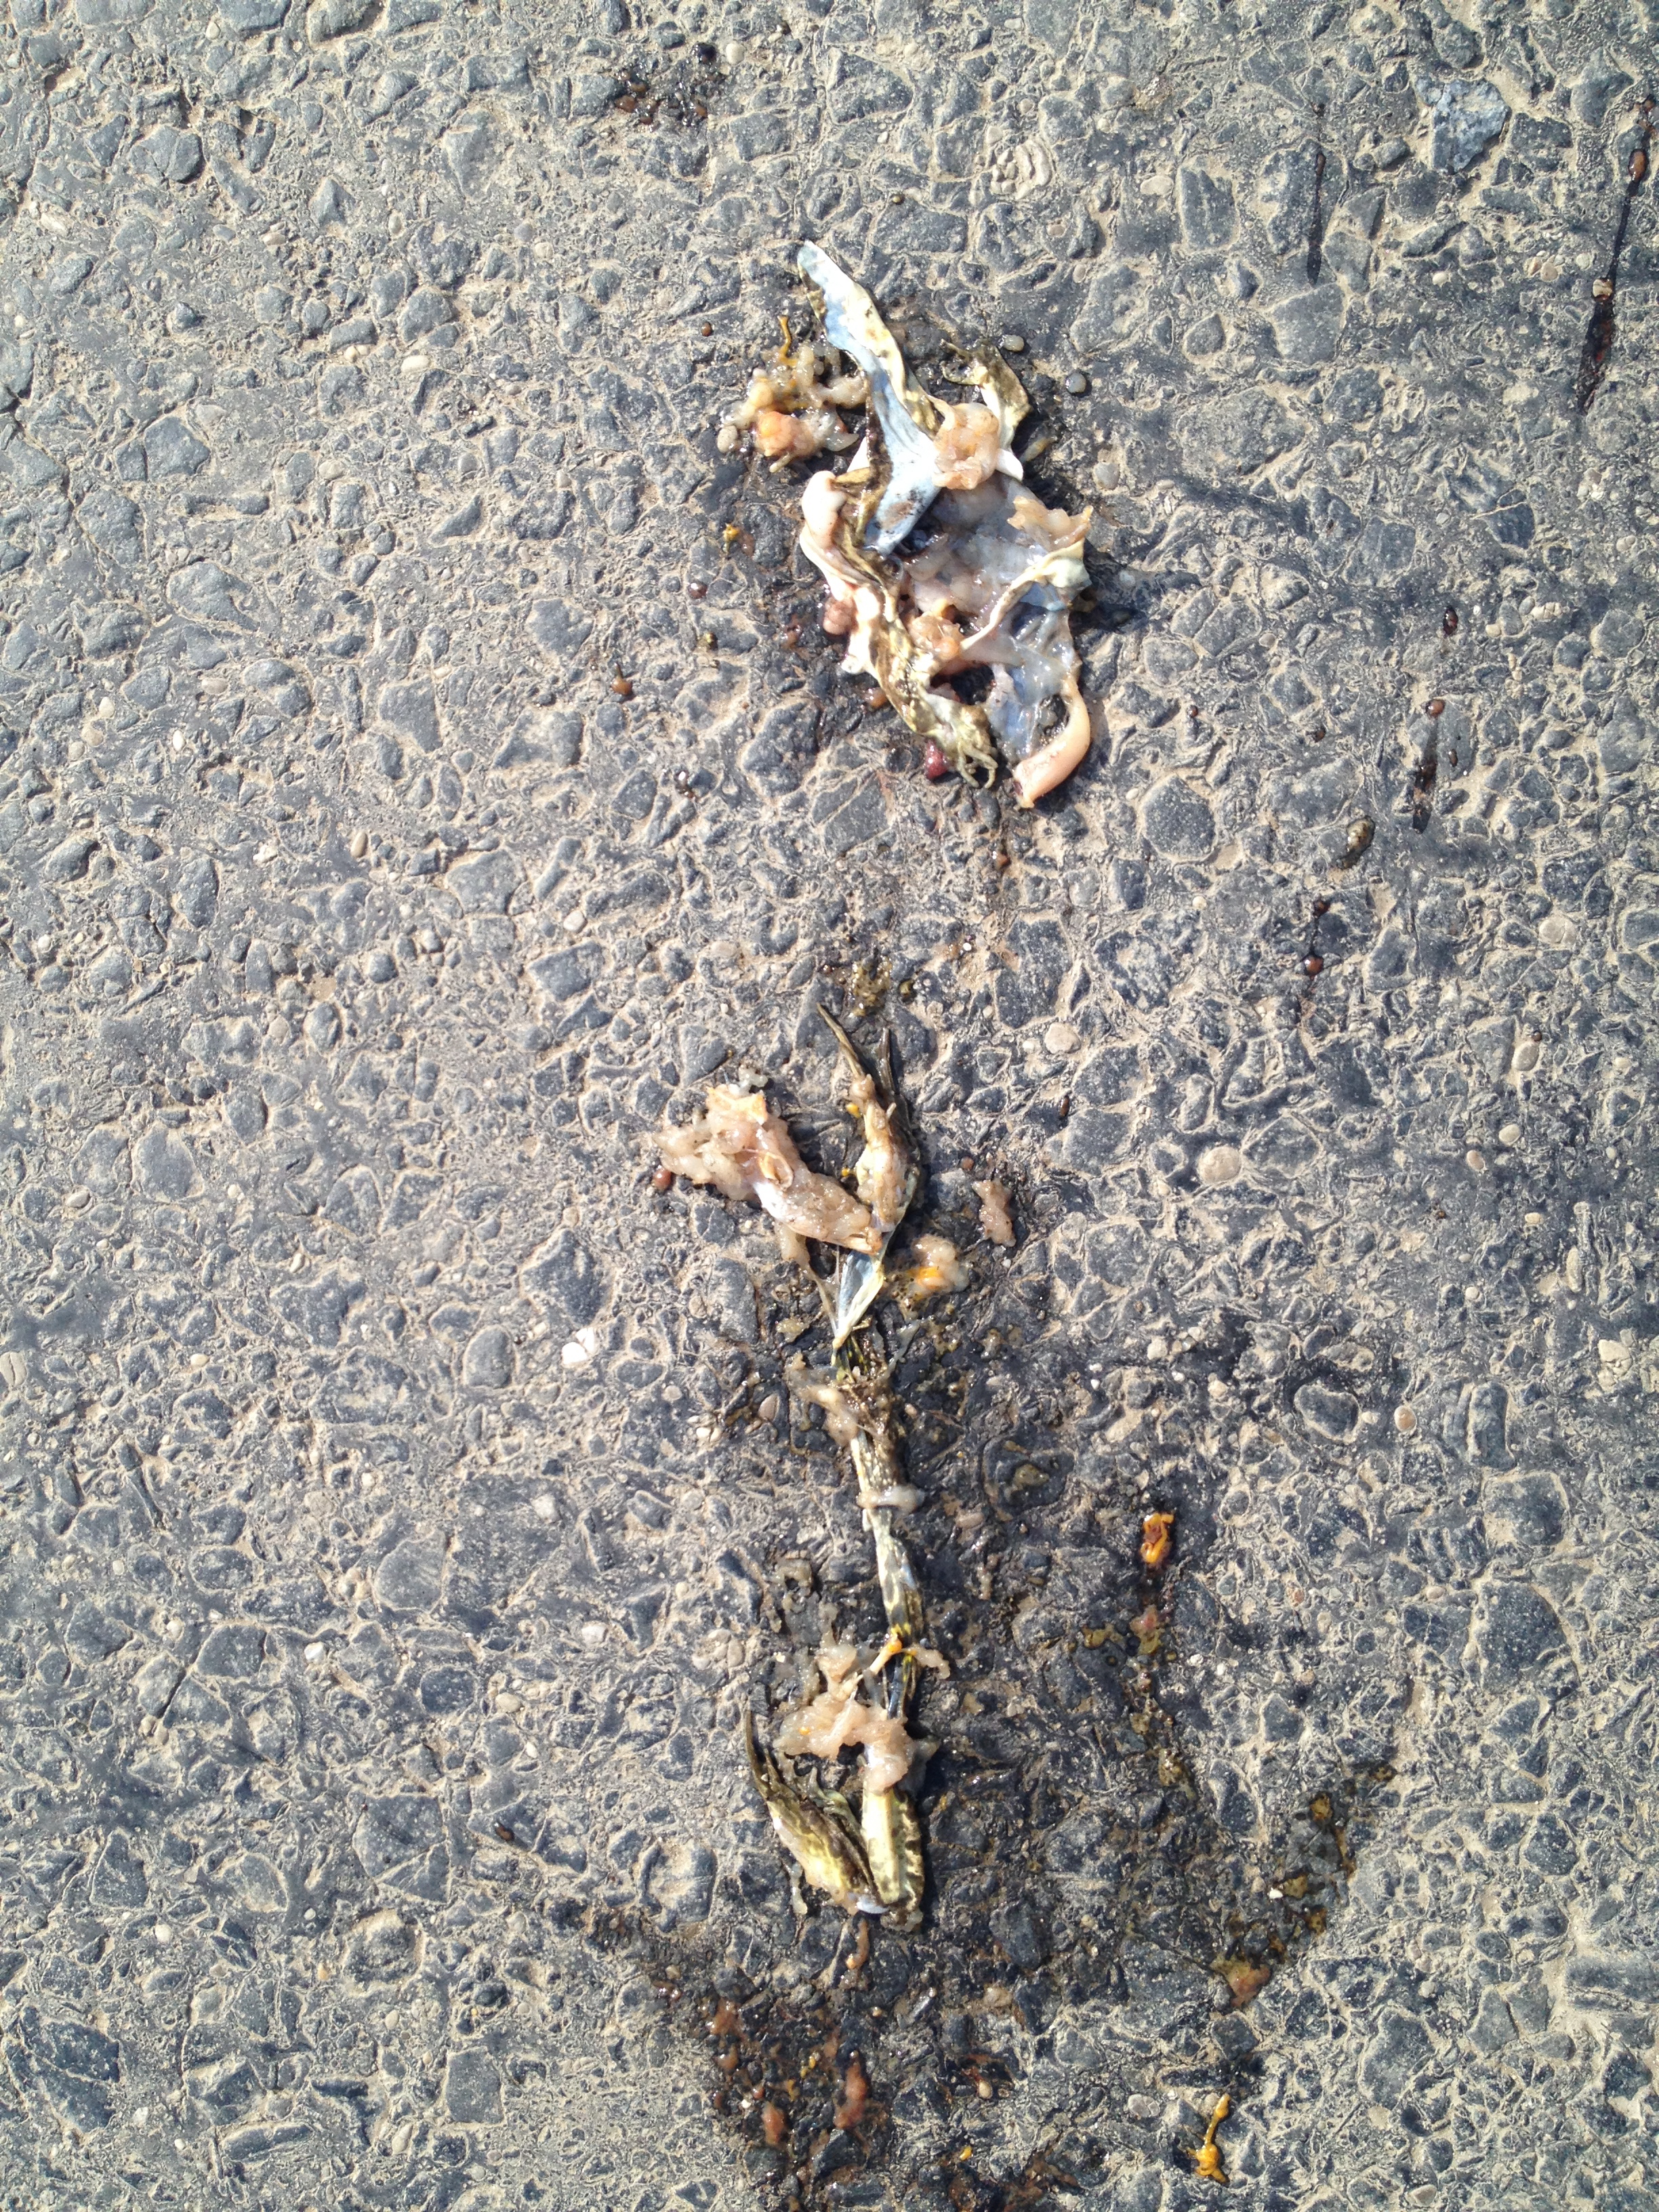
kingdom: Animalia
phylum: Chordata
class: Amphibia
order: Anura
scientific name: Anura
